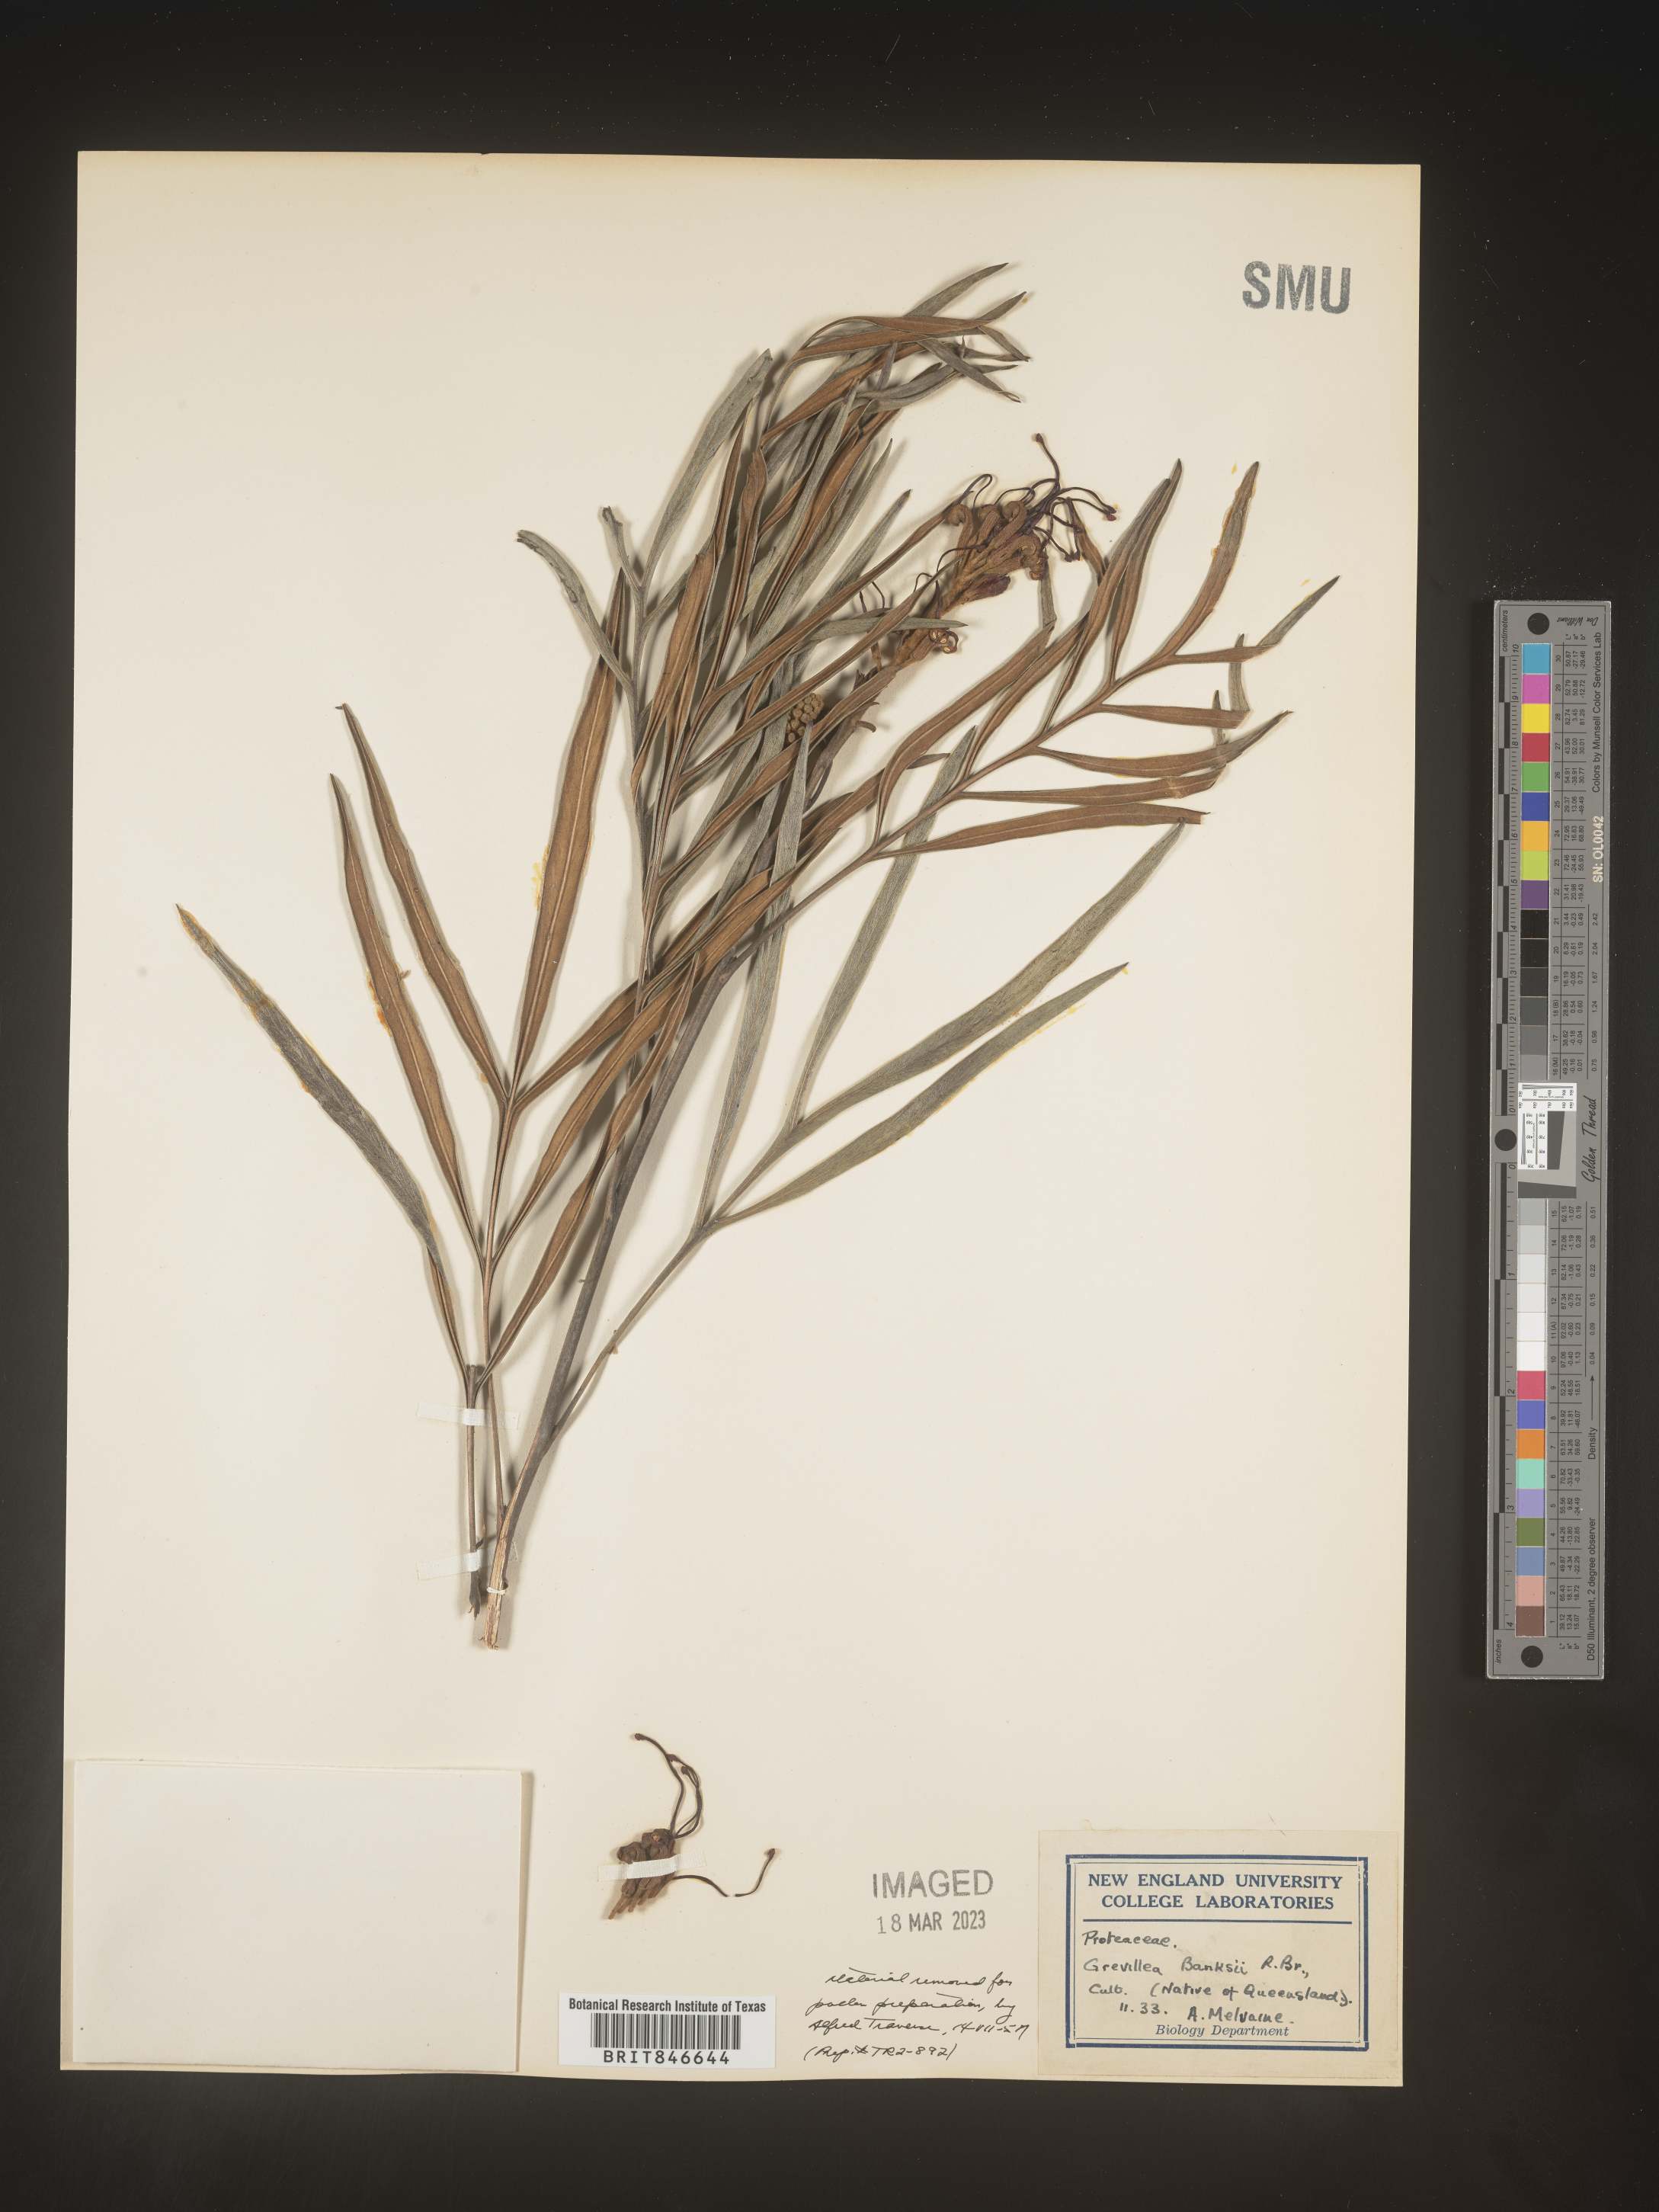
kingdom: Plantae
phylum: Tracheophyta
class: Magnoliopsida
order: Proteales
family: Proteaceae
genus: Grevillea
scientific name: Grevillea
